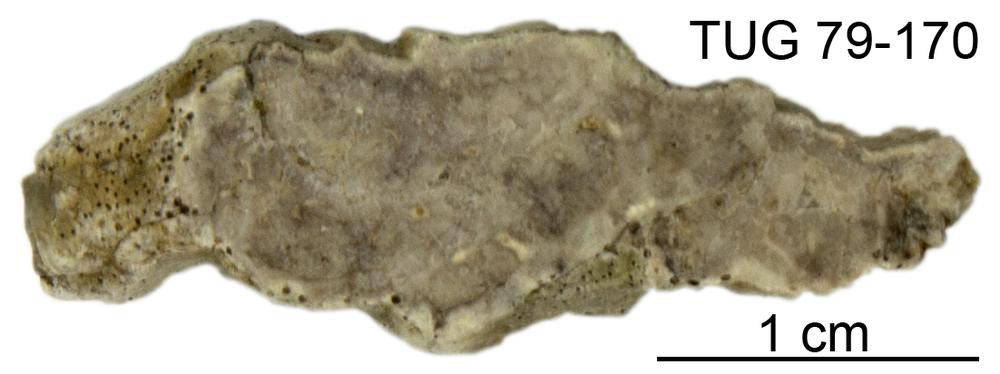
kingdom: Animalia
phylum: Cnidaria
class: Anthozoa
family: Cateniporidae
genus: Catenipora
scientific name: Catenipora
